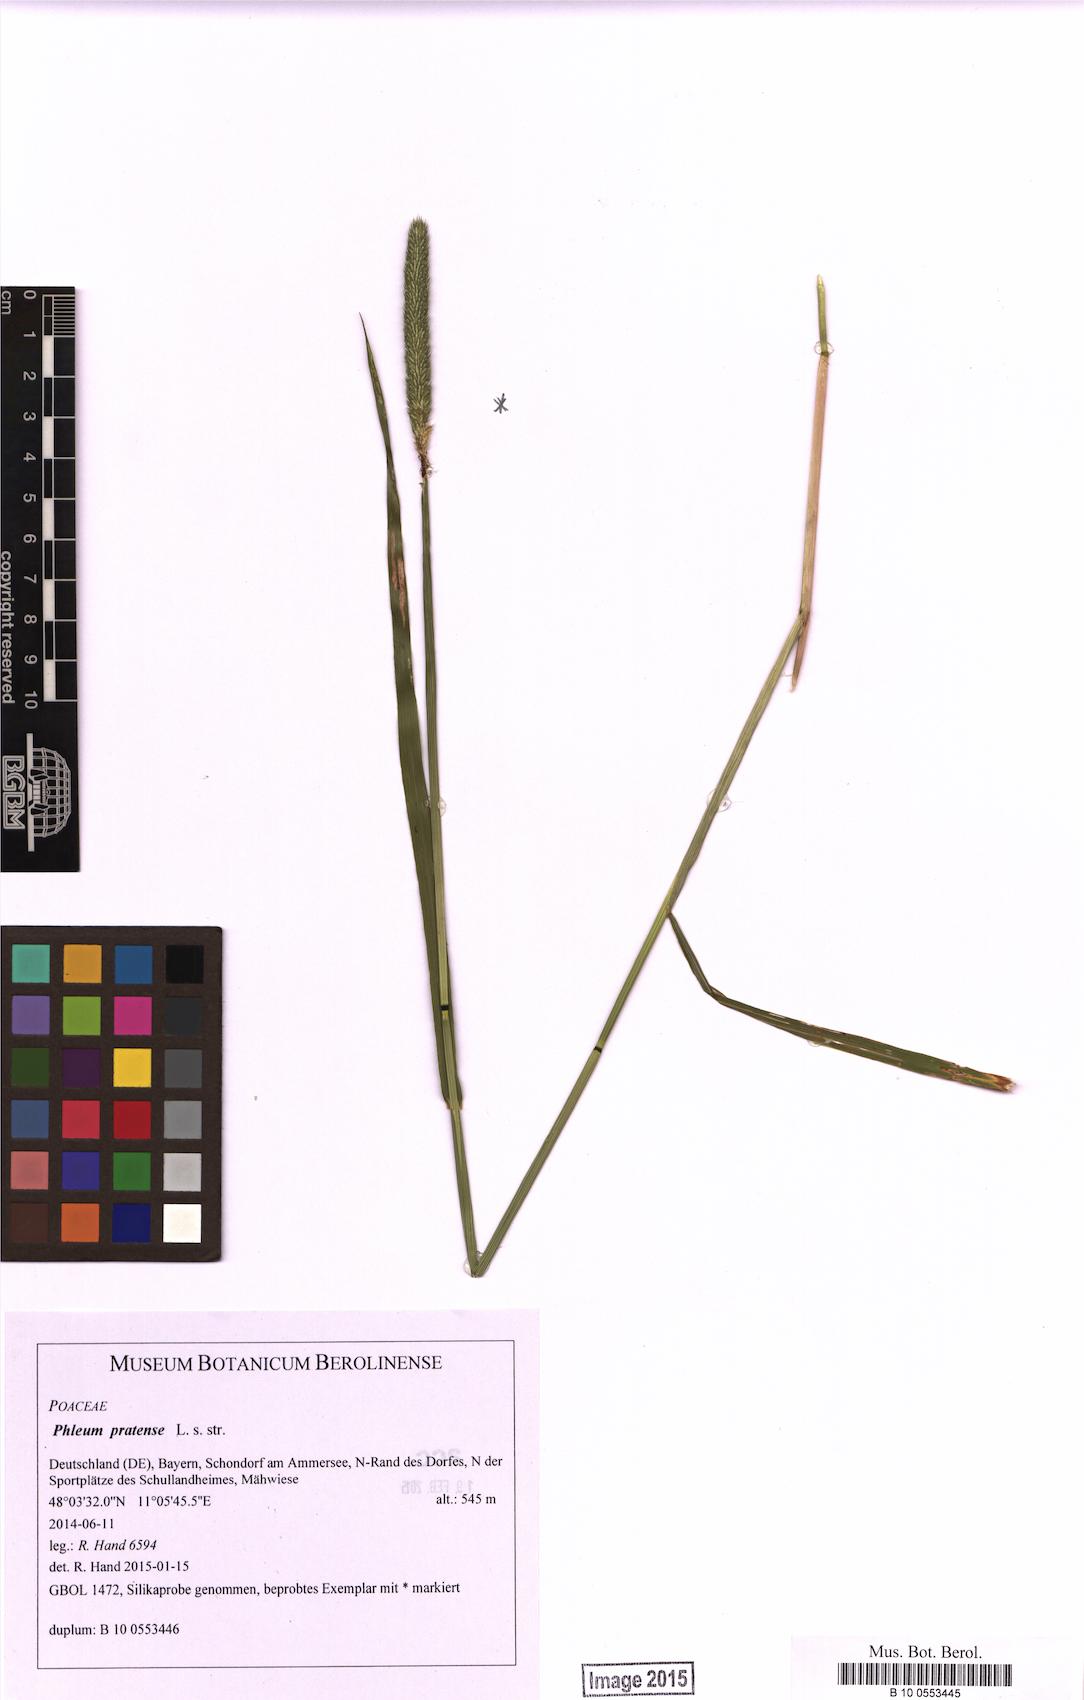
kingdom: Plantae
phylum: Tracheophyta
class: Liliopsida
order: Poales
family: Poaceae
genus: Phleum
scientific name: Phleum pratense
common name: Timothy grass
